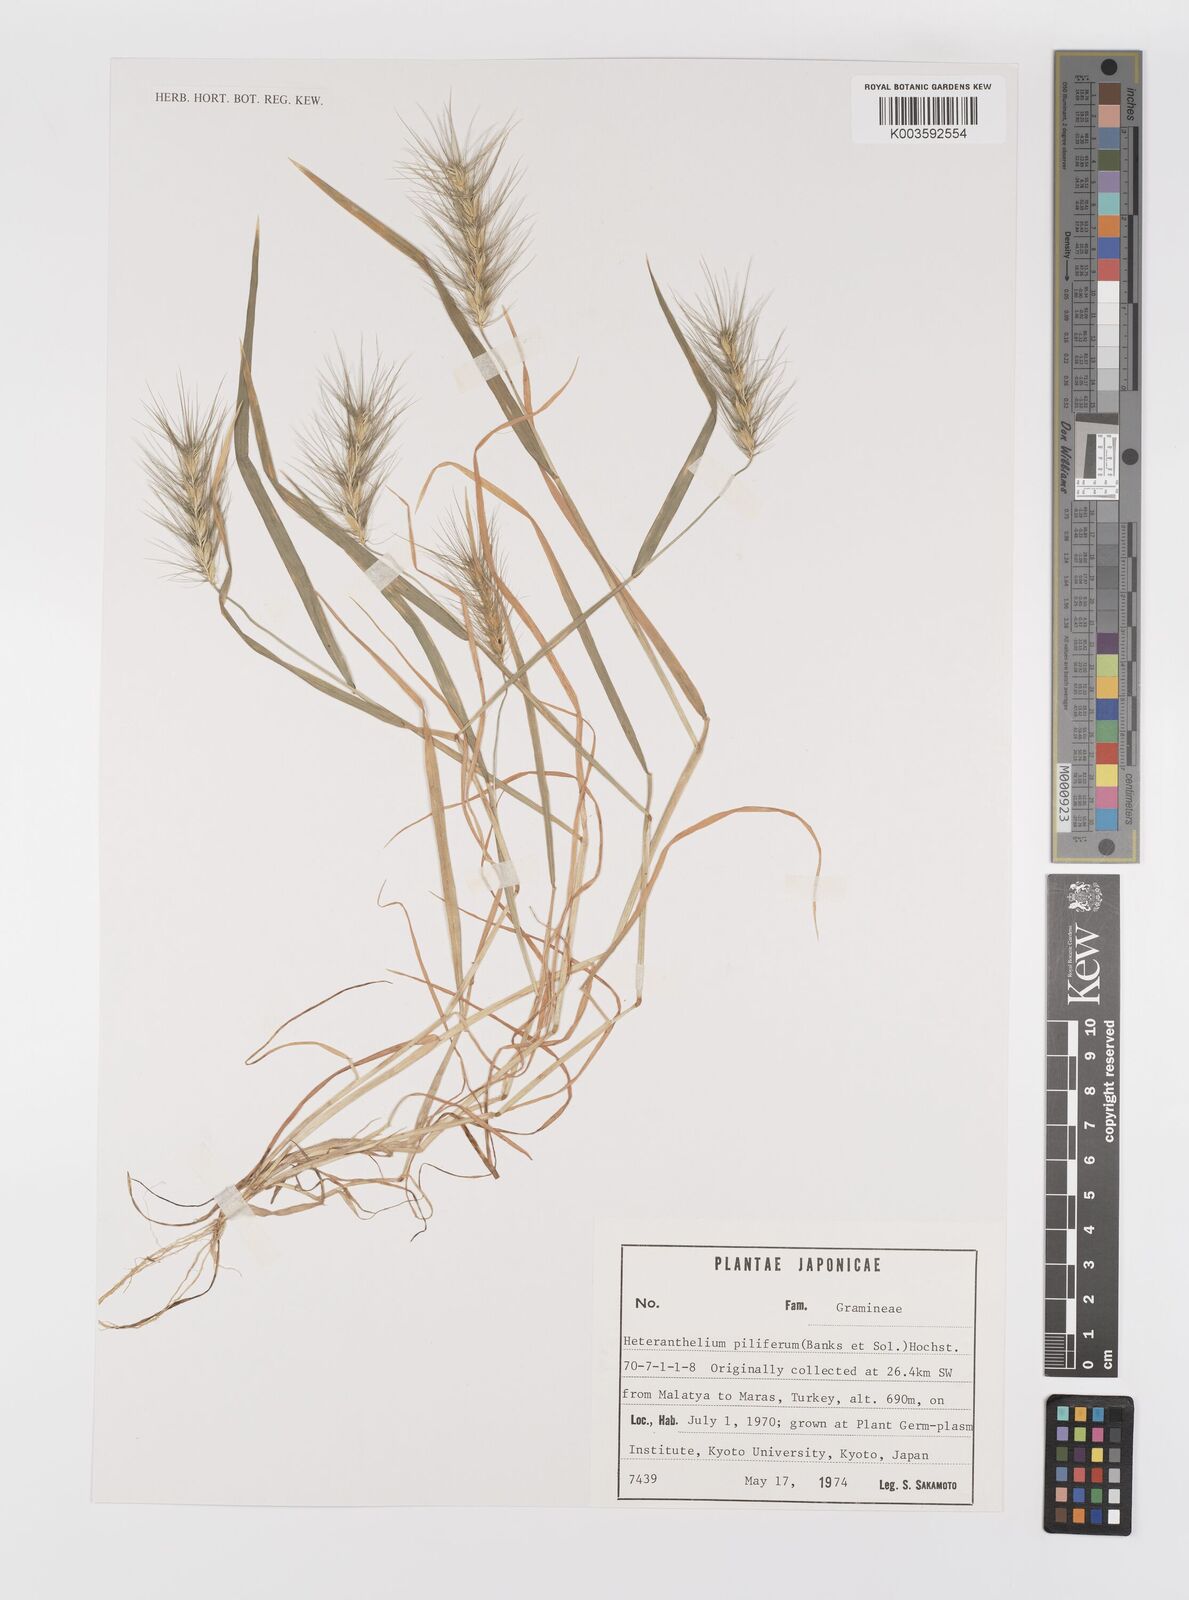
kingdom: Plantae
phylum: Tracheophyta
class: Liliopsida
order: Poales
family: Poaceae
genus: Heteranthelium
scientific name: Heteranthelium piliferum
